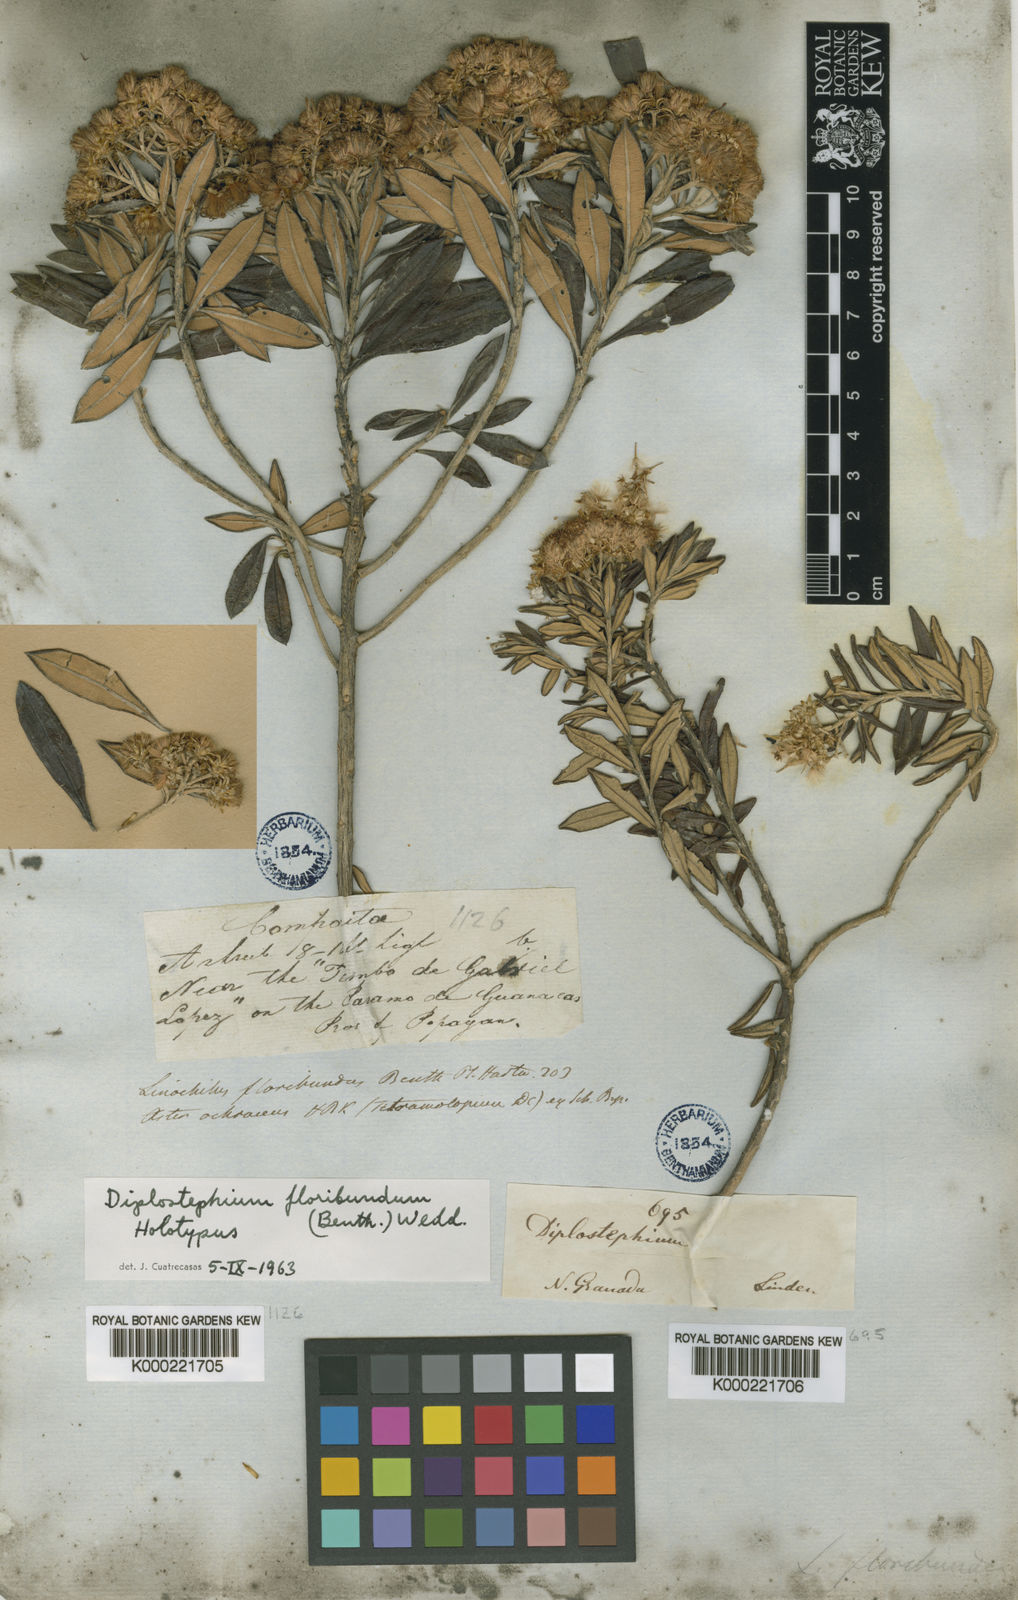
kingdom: Plantae
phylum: Tracheophyta
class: Magnoliopsida
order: Asterales
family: Asteraceae
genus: Linochilus
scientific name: Linochilus floribundus
